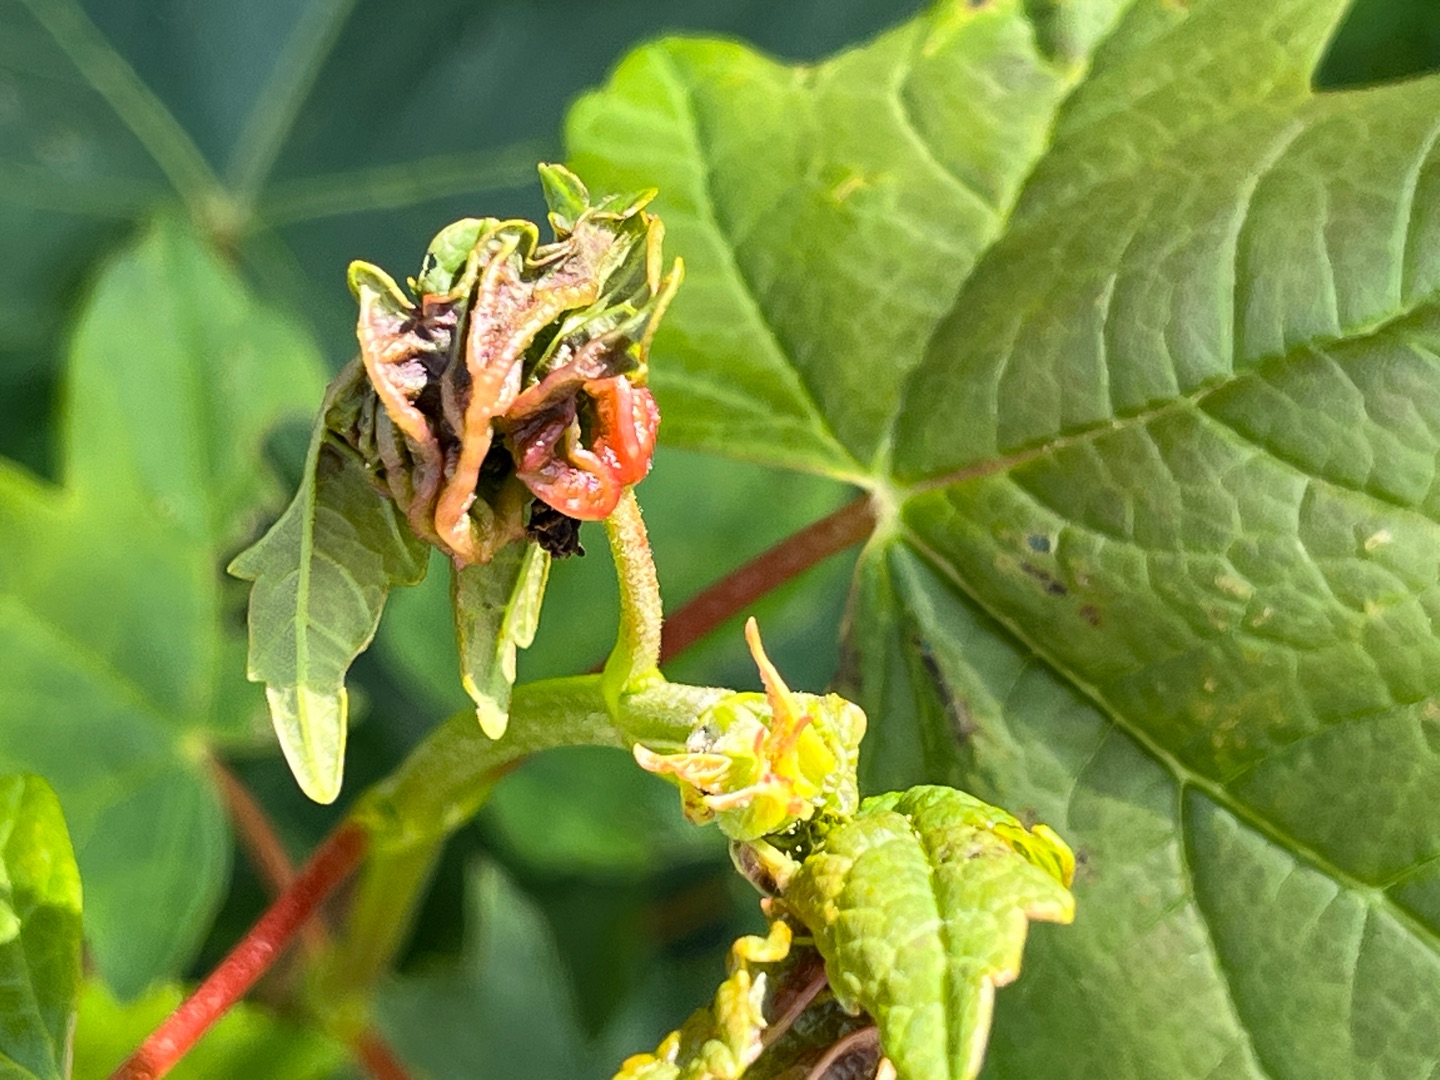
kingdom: Animalia
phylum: Arthropoda
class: Insecta
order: Diptera
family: Cecidomyiidae
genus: Dasineura
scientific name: Dasineura irregularis
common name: Ahornkrusegalmyg
